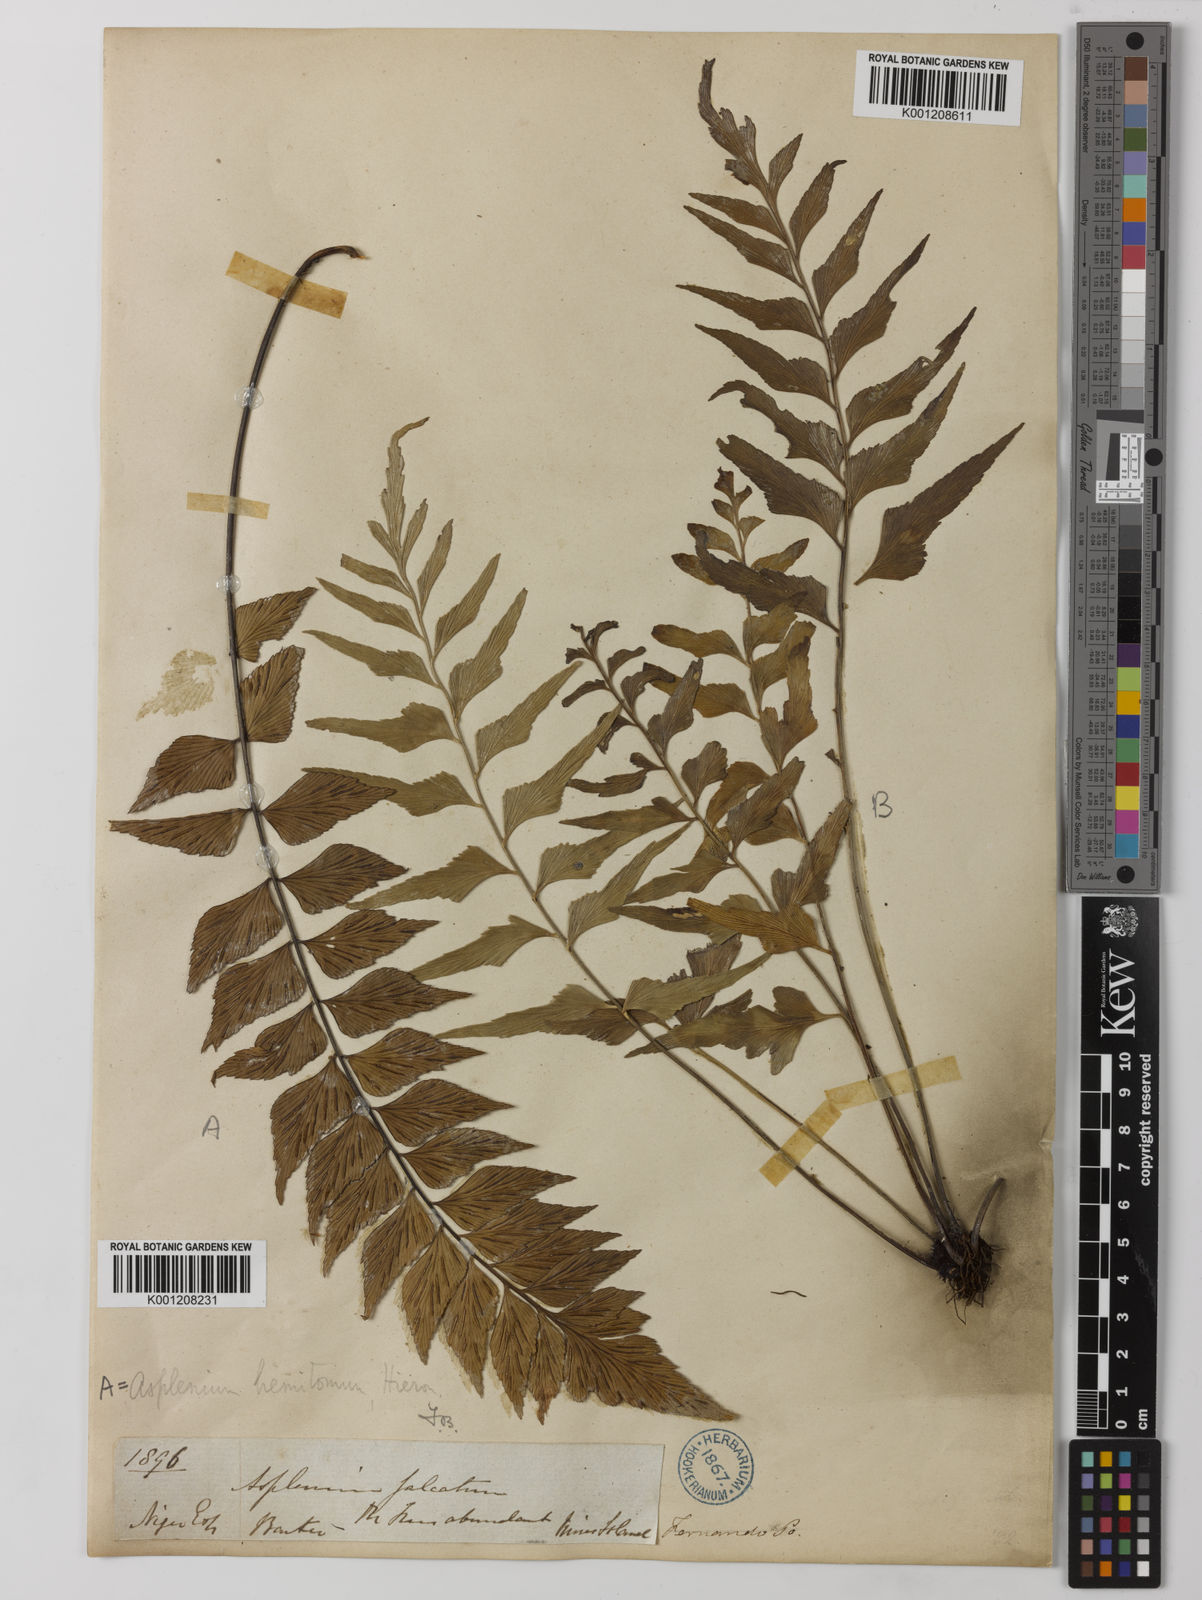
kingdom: Plantae
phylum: Tracheophyta
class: Polypodiopsida
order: Polypodiales
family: Aspleniaceae
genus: Asplenium
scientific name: Asplenium hemitomum
